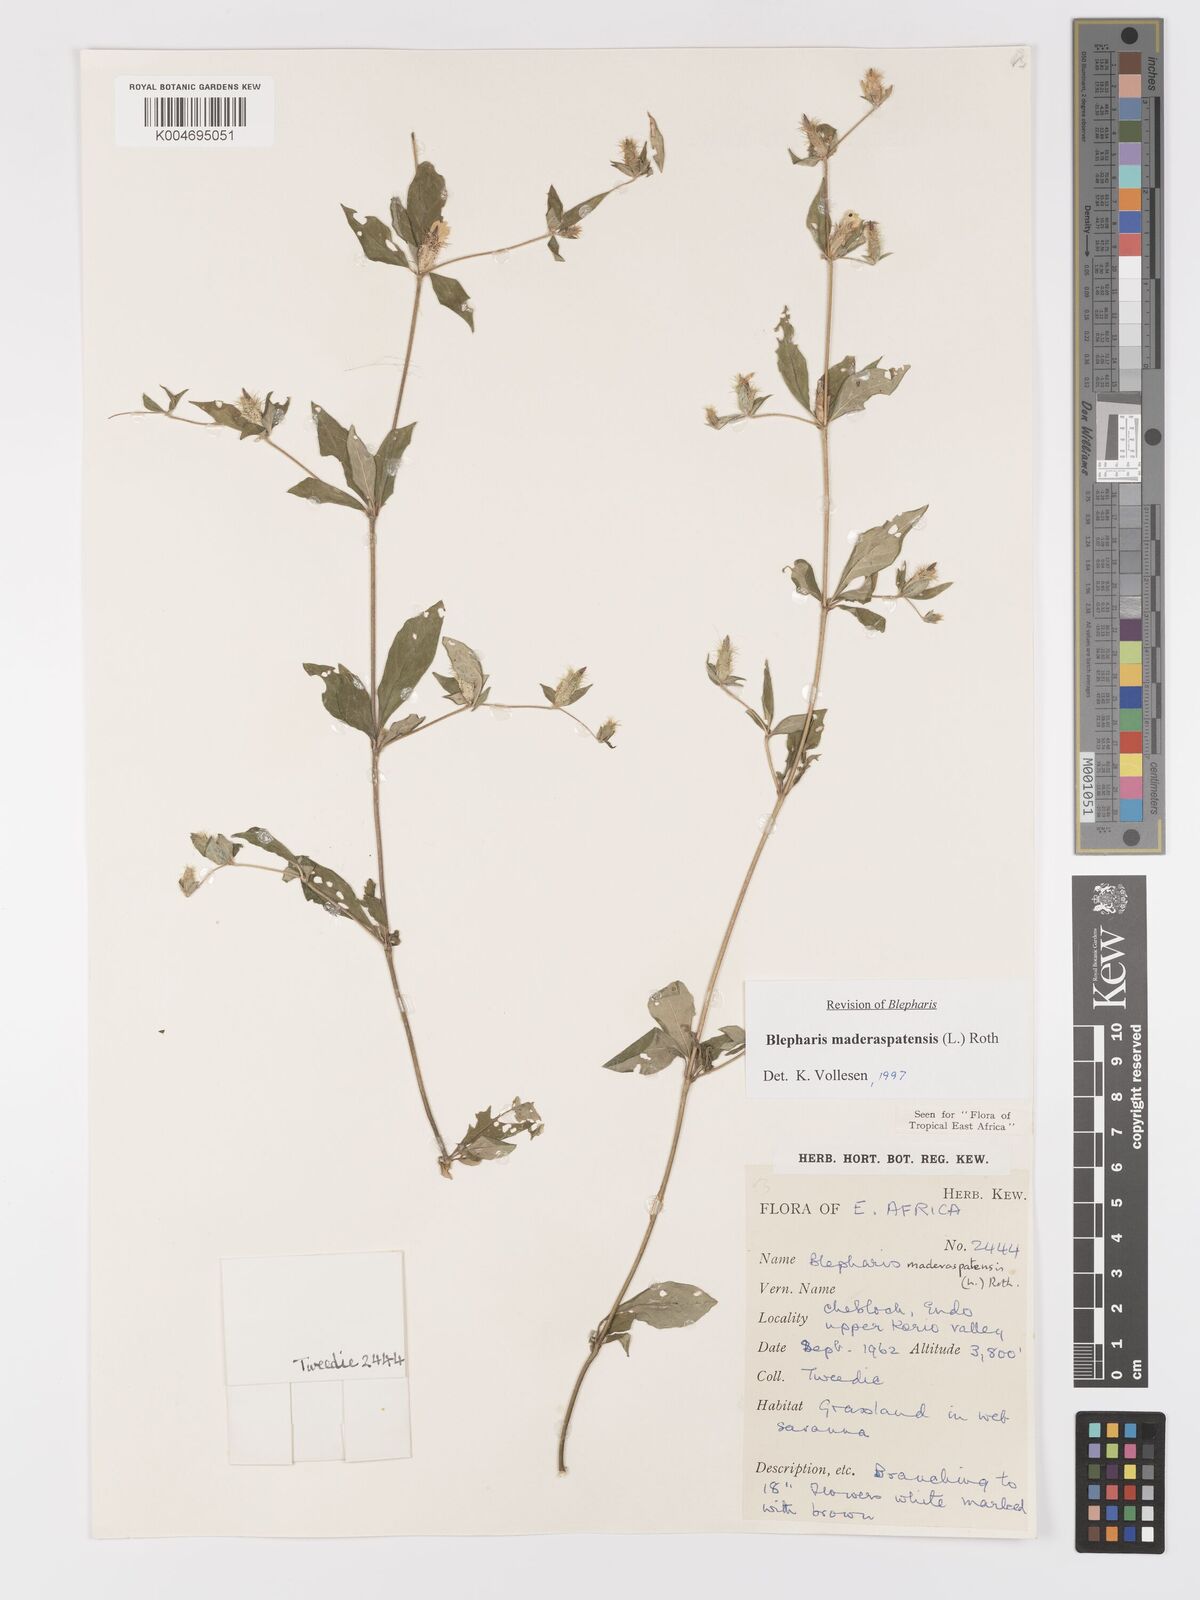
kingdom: Plantae
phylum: Tracheophyta
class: Magnoliopsida
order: Lamiales
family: Acanthaceae
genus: Blepharis
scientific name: Blepharis maderaspatensis
